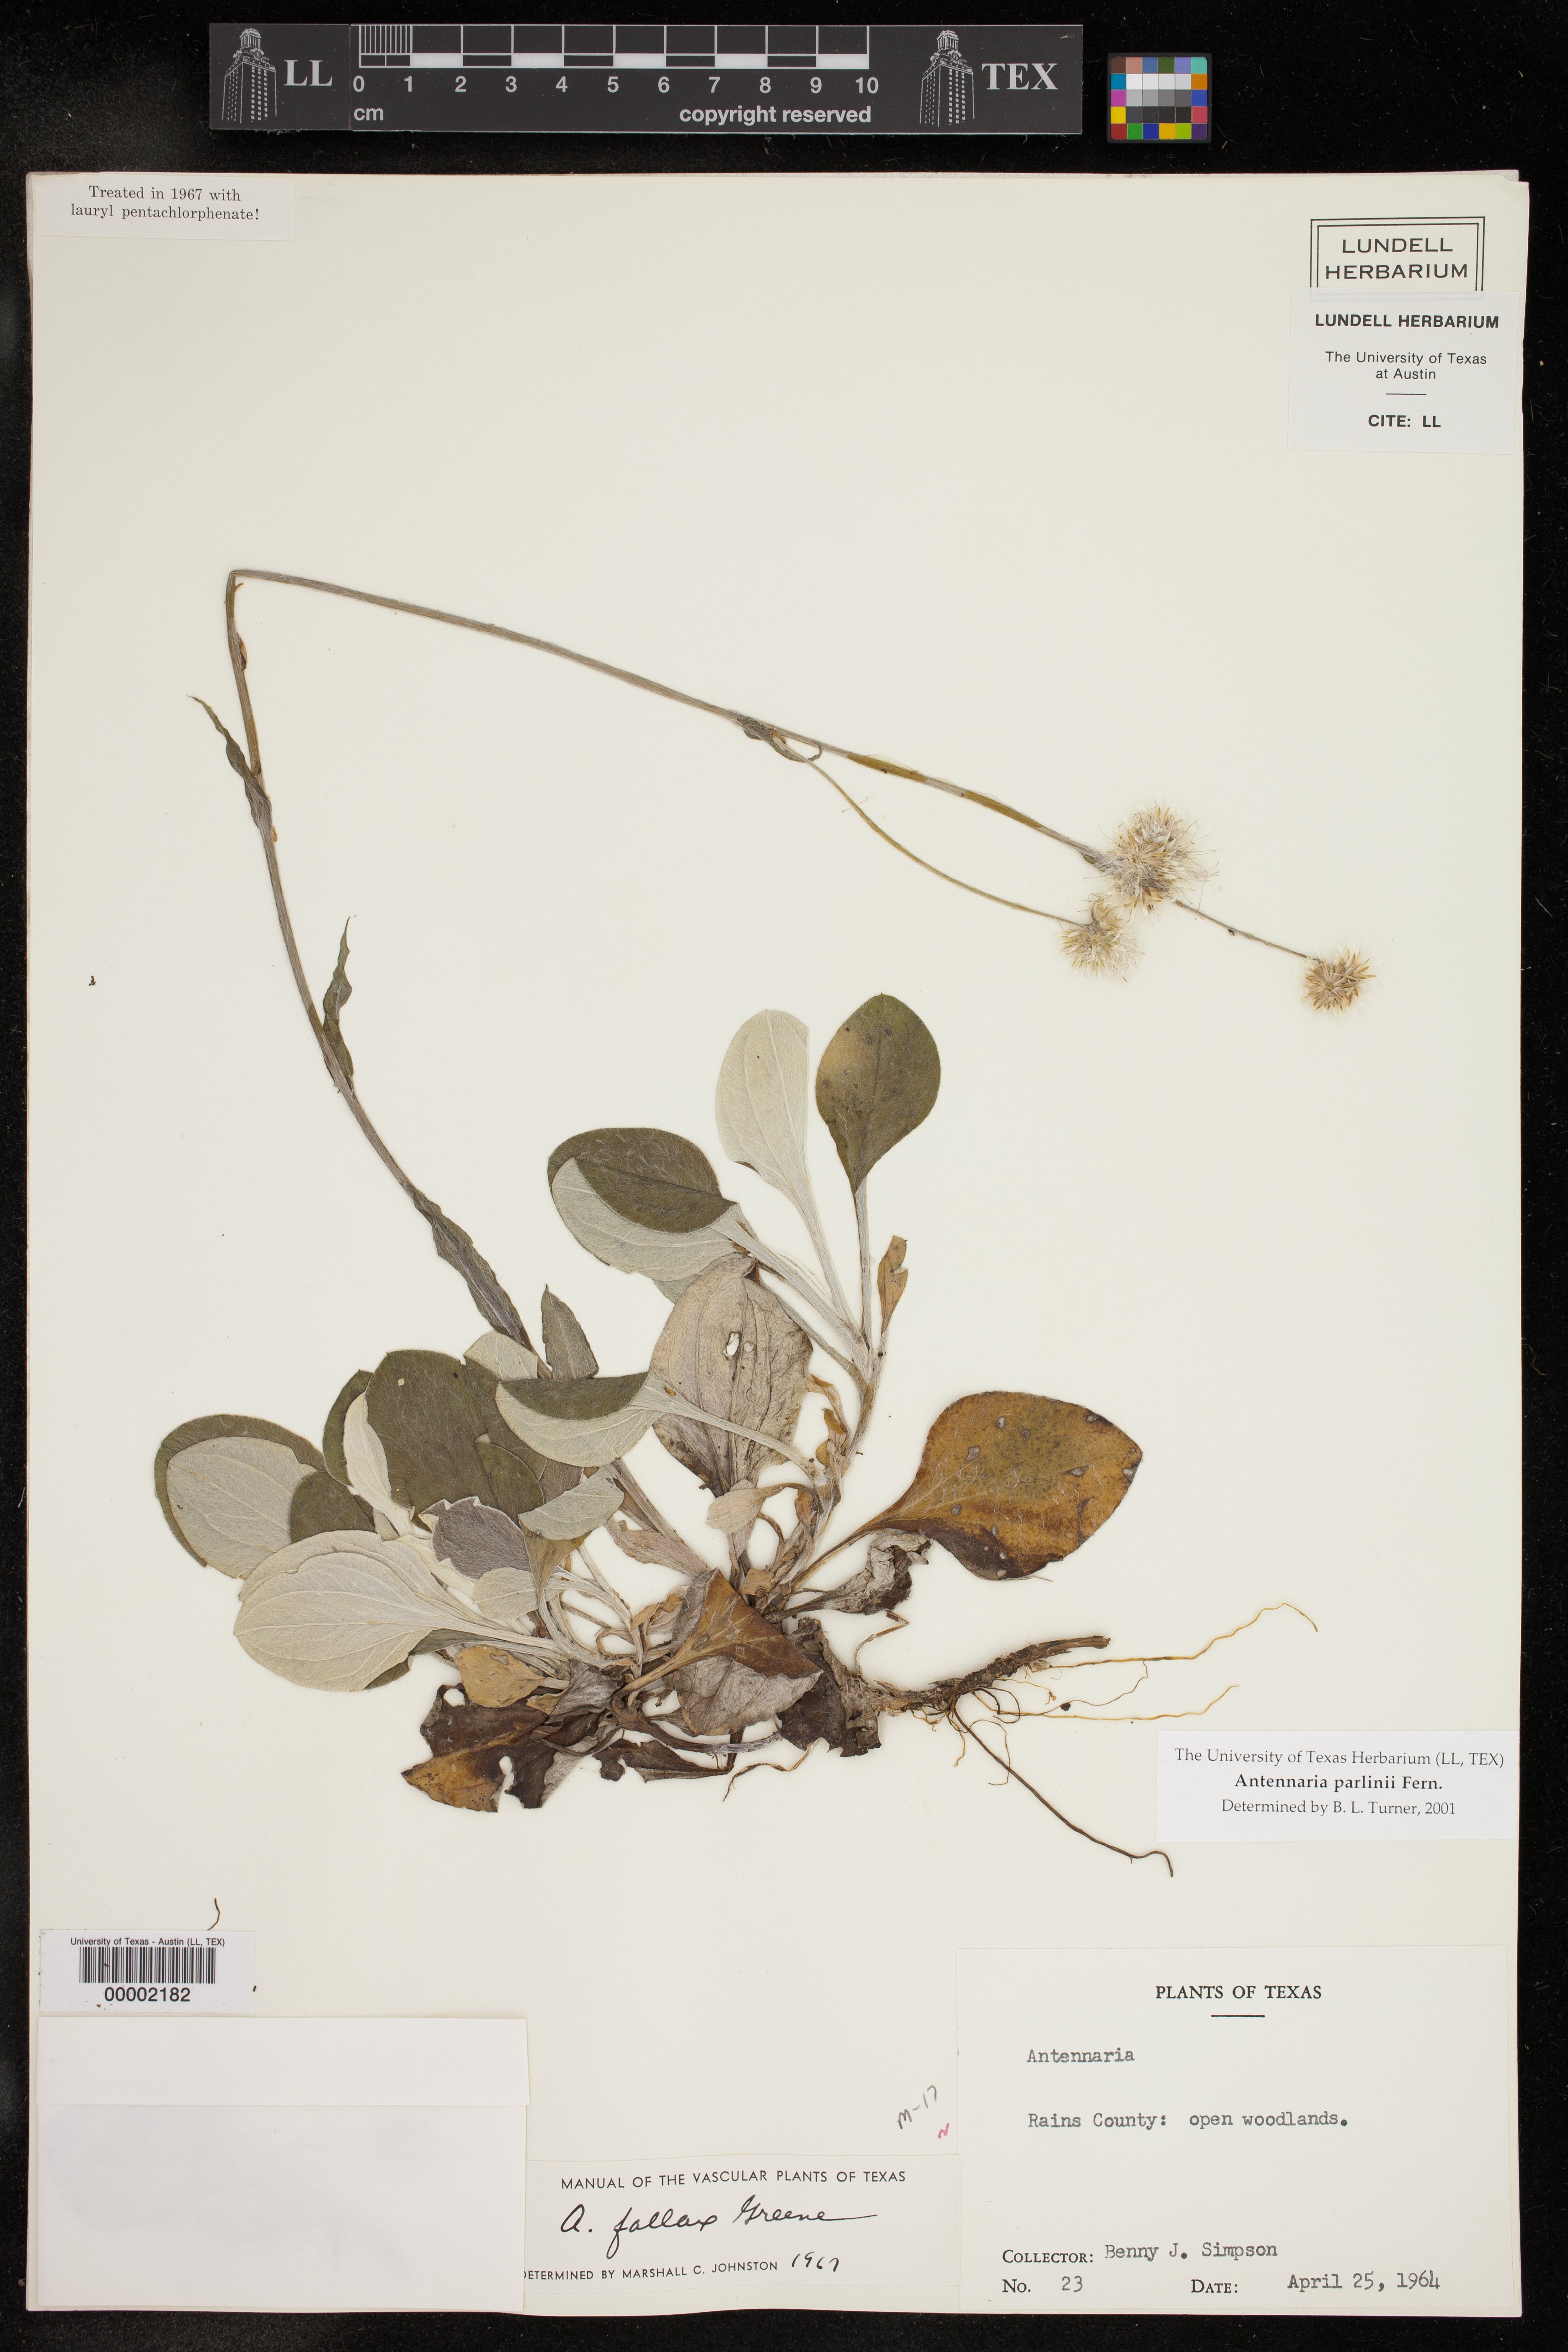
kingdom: Plantae
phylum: Tracheophyta
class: Magnoliopsida
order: Asterales
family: Asteraceae
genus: Antennaria
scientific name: Antennaria parlinii
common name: Parlin's pussytoes
